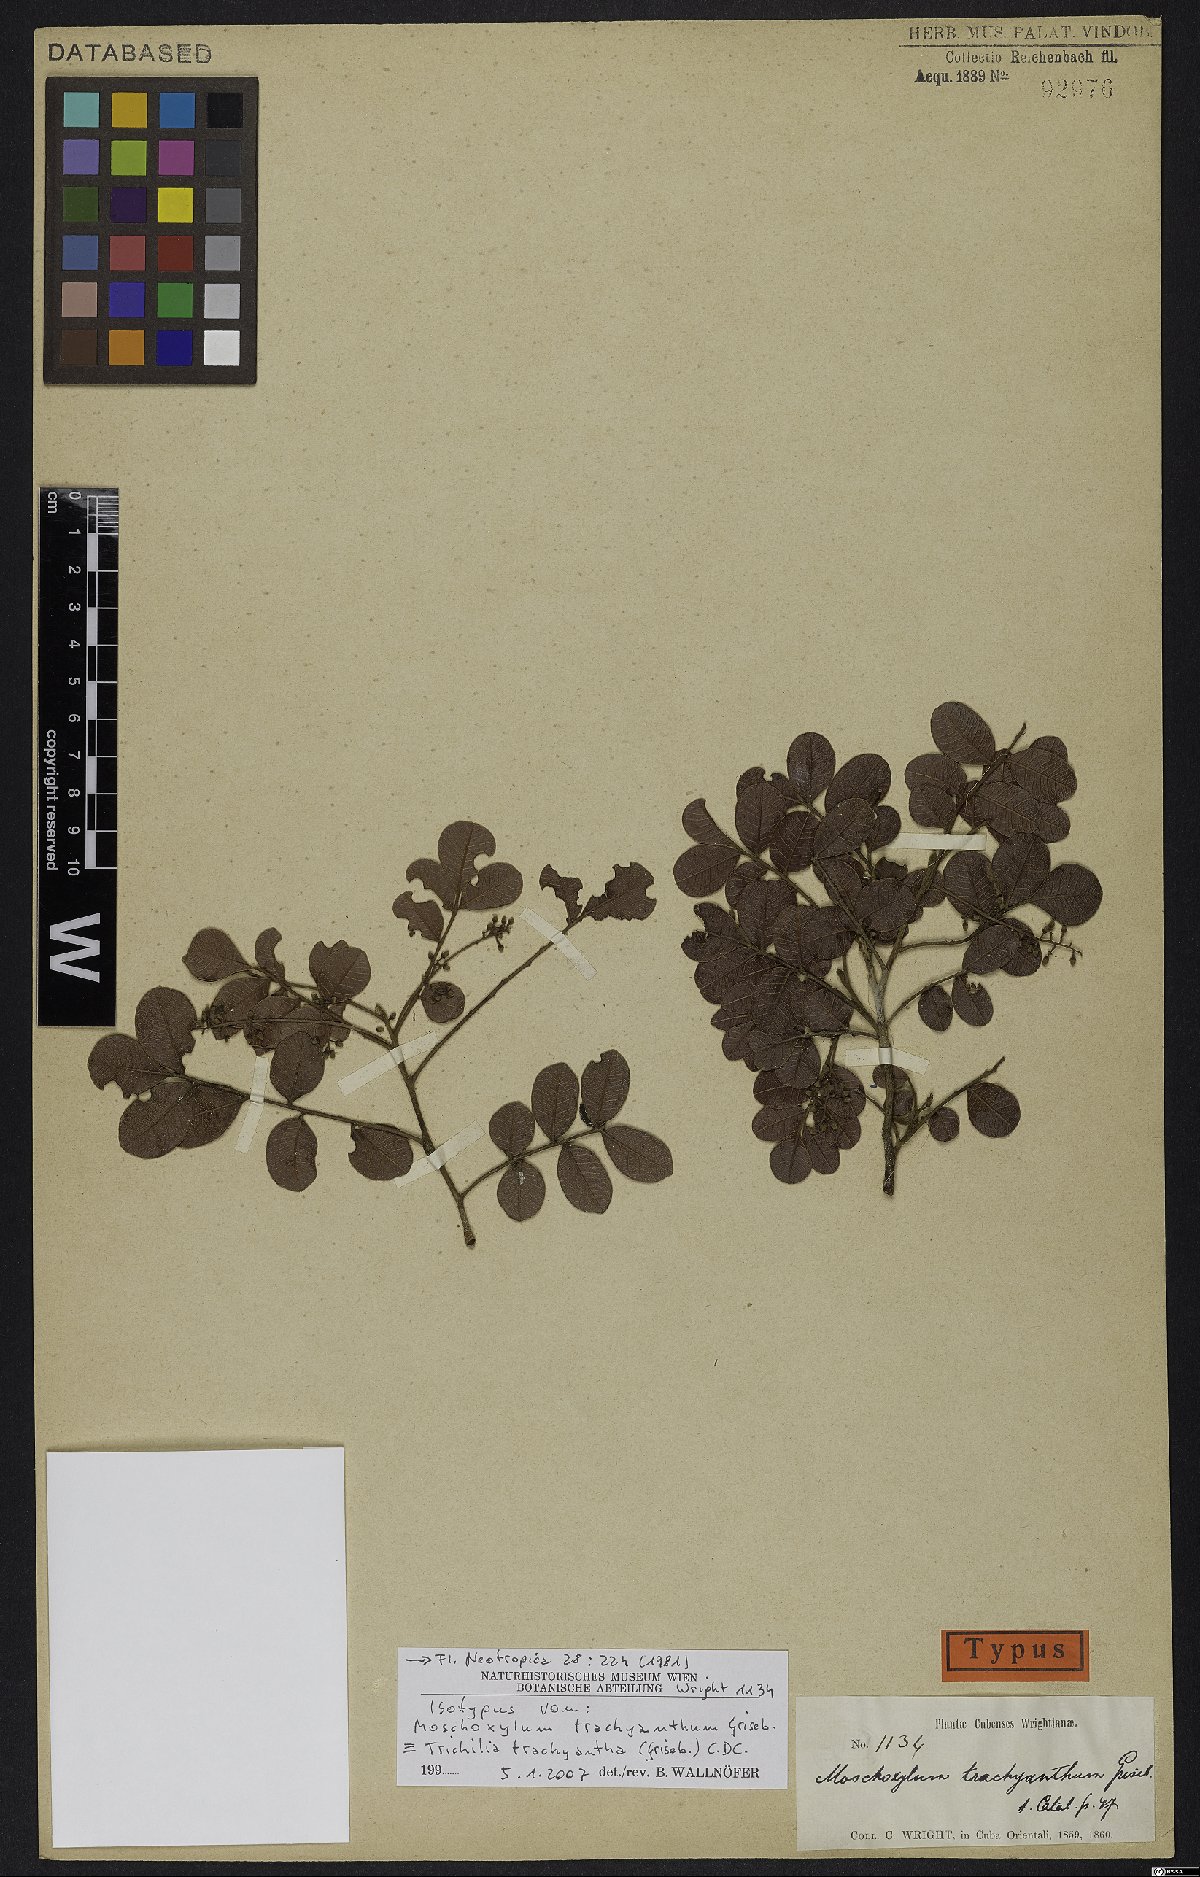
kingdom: Plantae
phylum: Tracheophyta
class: Magnoliopsida
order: Sapindales
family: Meliaceae
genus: Trichilia
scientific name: Trichilia trachyantha
